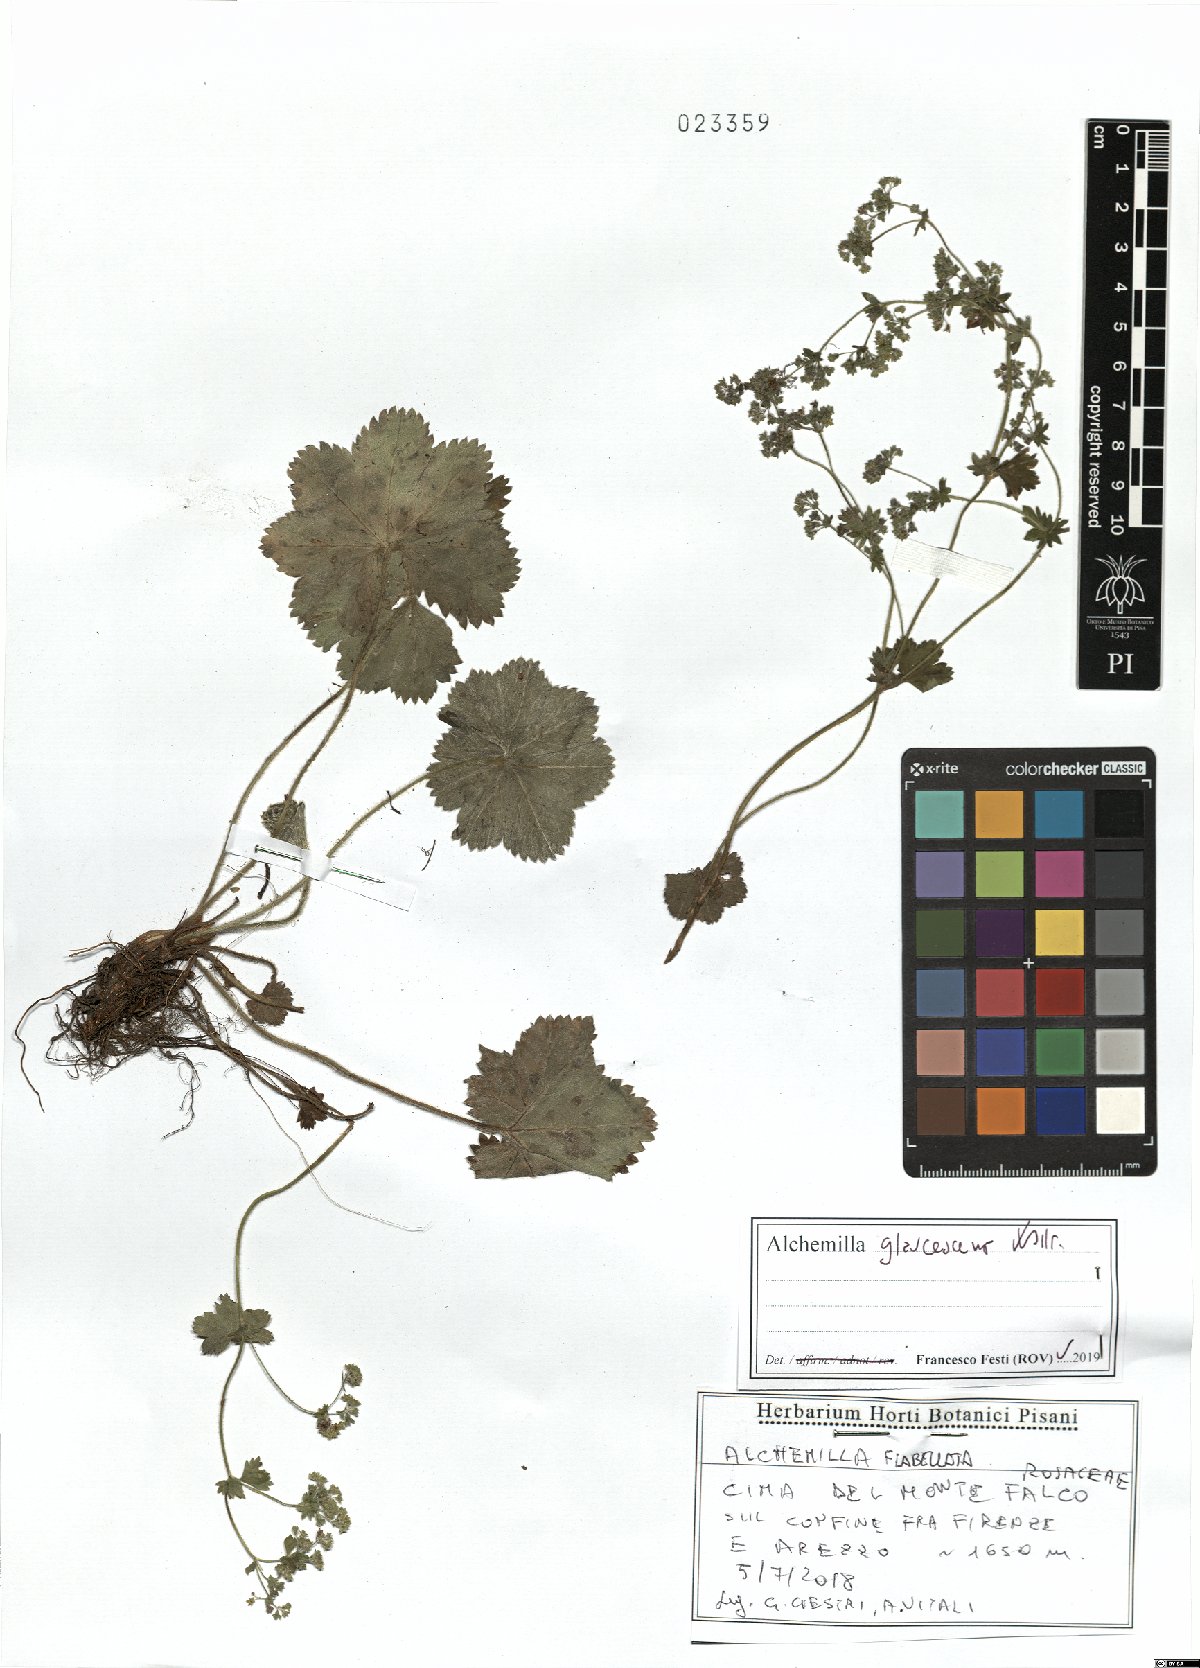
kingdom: Plantae
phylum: Tracheophyta
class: Magnoliopsida
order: Rosales
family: Rosaceae
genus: Alchemilla
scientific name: Alchemilla glaucescens
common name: Silky lady's mantle
